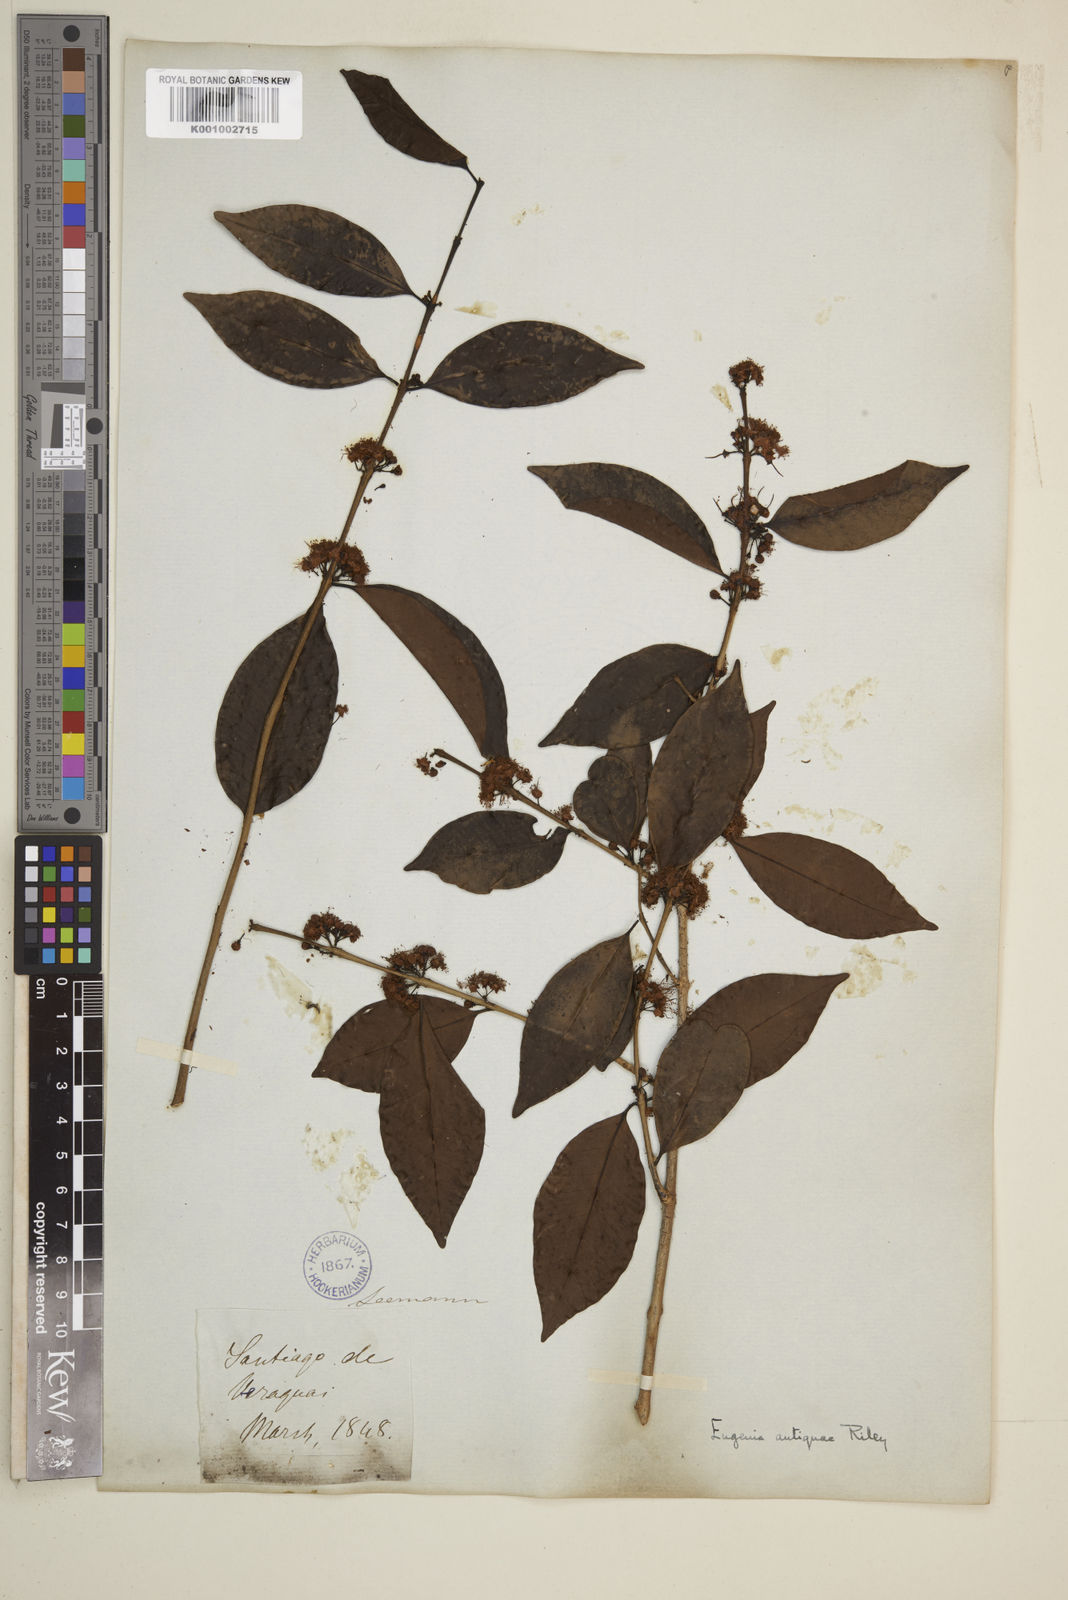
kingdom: Plantae
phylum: Tracheophyta
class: Magnoliopsida
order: Myrtales
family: Myrtaceae
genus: Eugenia
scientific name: Eugenia acapulcensis
